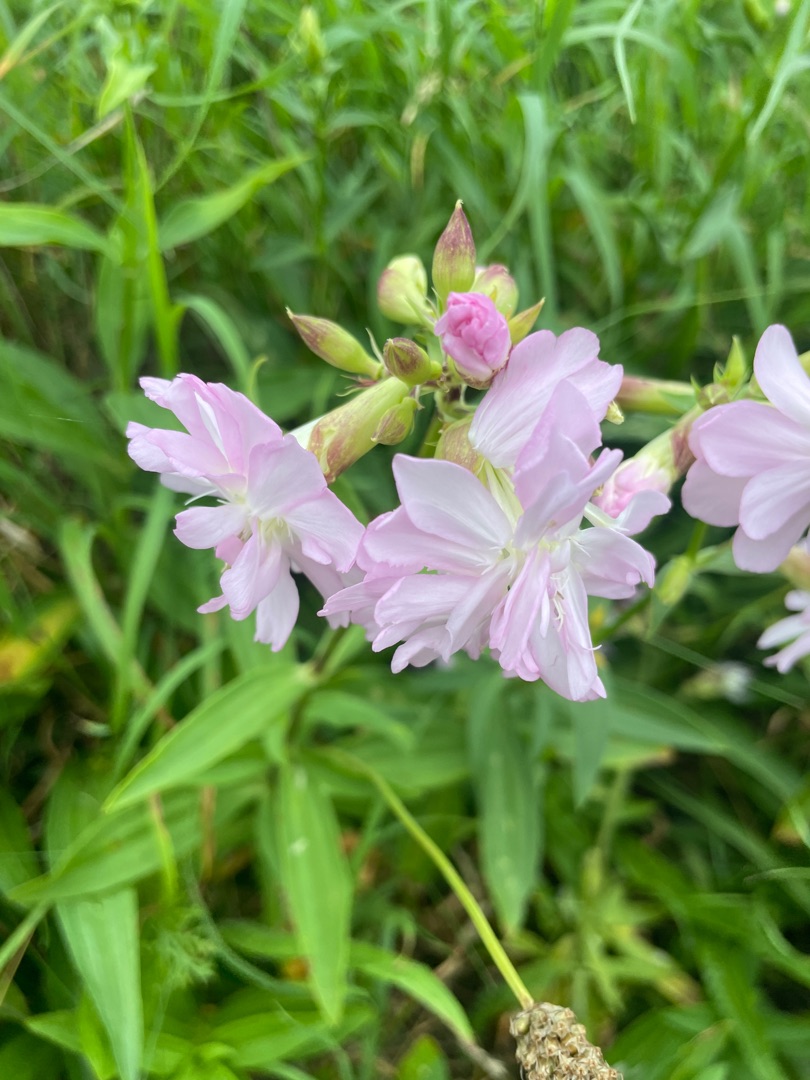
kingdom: Plantae
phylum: Tracheophyta
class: Magnoliopsida
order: Caryophyllales
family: Caryophyllaceae
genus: Saponaria
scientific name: Saponaria officinalis
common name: Sæbeurt
